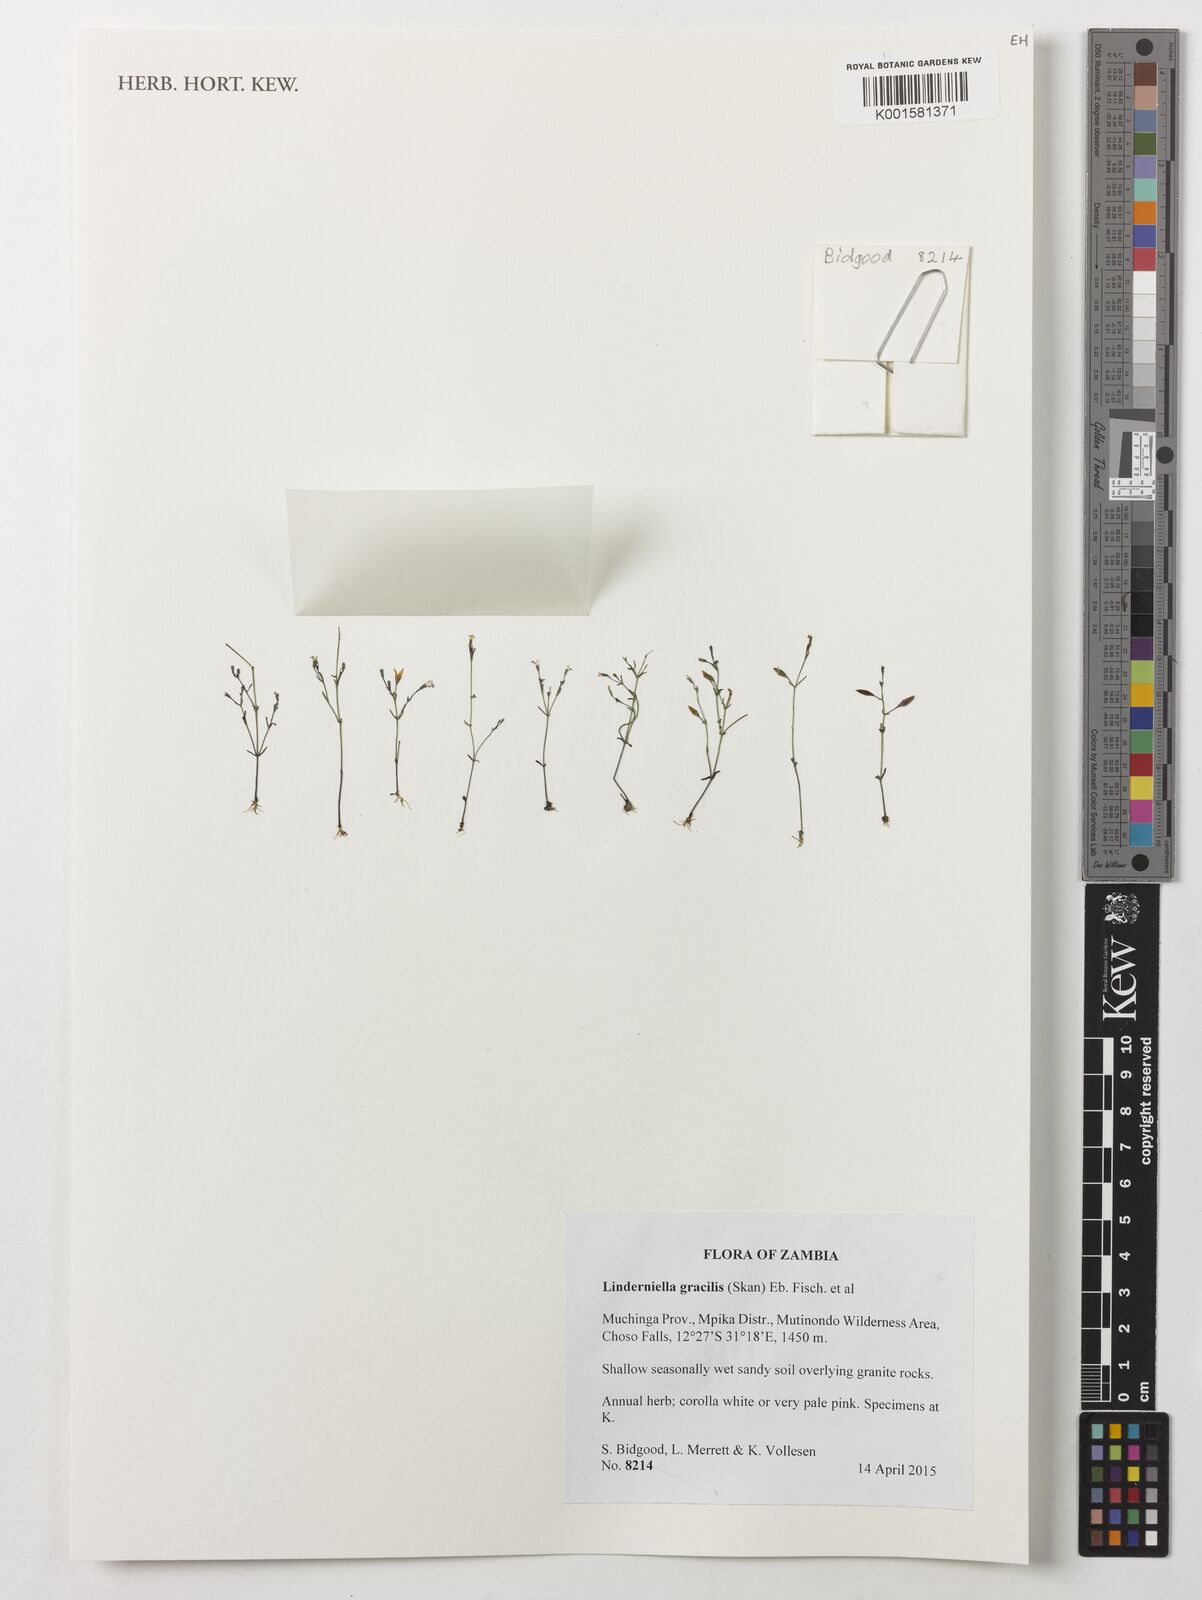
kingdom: Plantae
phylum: Tracheophyta
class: Magnoliopsida
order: Lamiales
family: Linderniaceae
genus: Linderniella
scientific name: Linderniella gracilis
